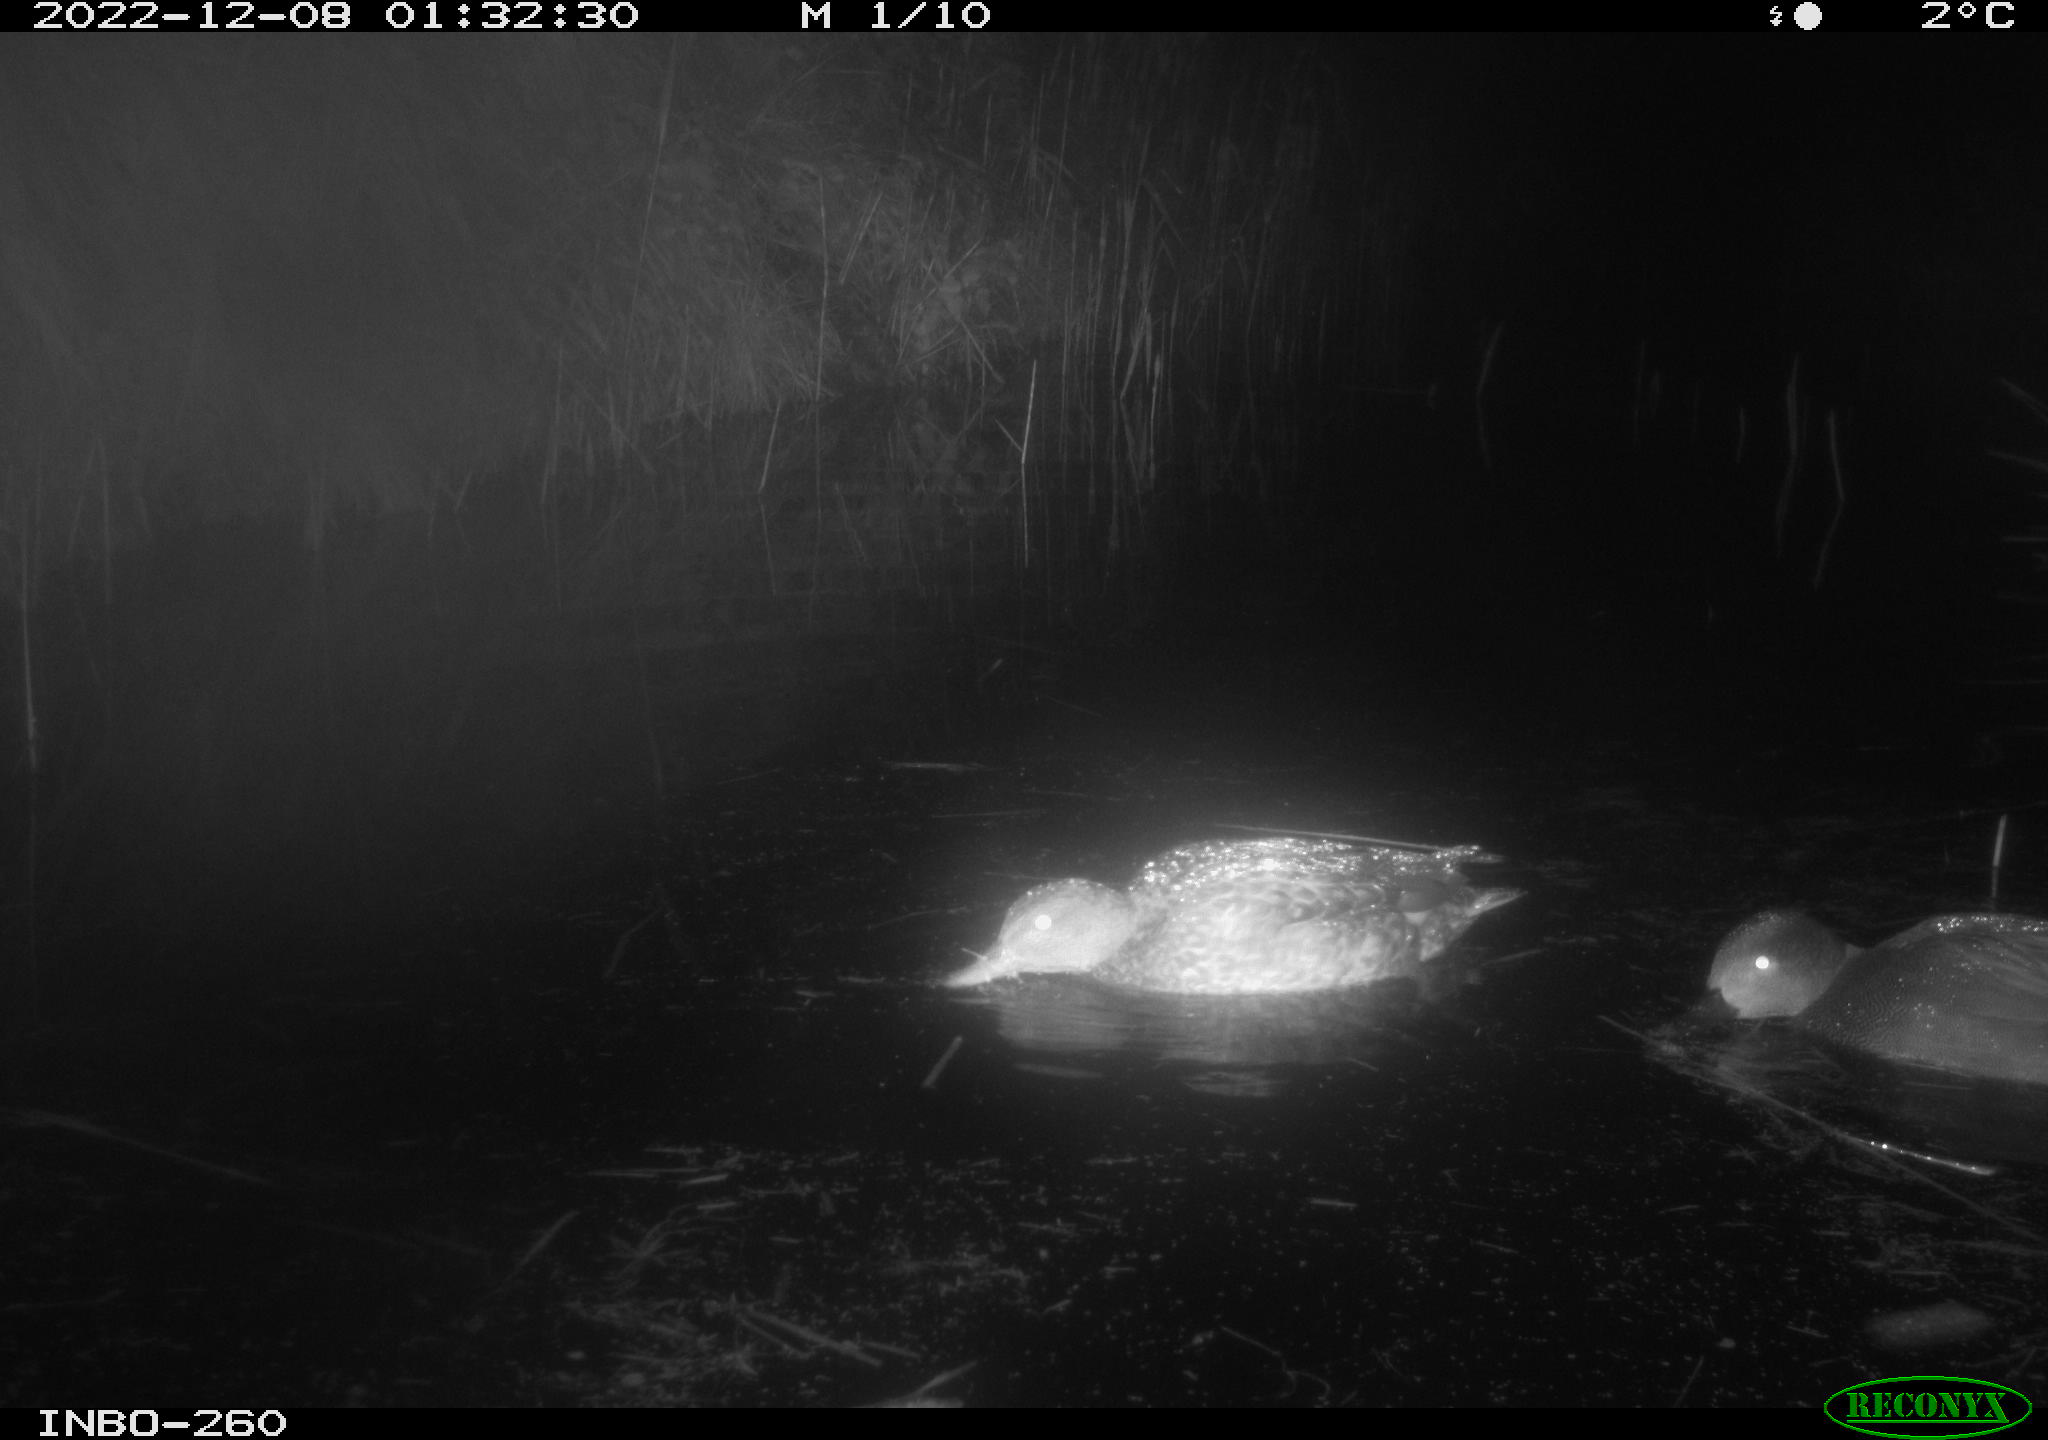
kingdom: Animalia
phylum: Chordata
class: Aves
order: Anseriformes
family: Anatidae
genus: Anas
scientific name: Anas
